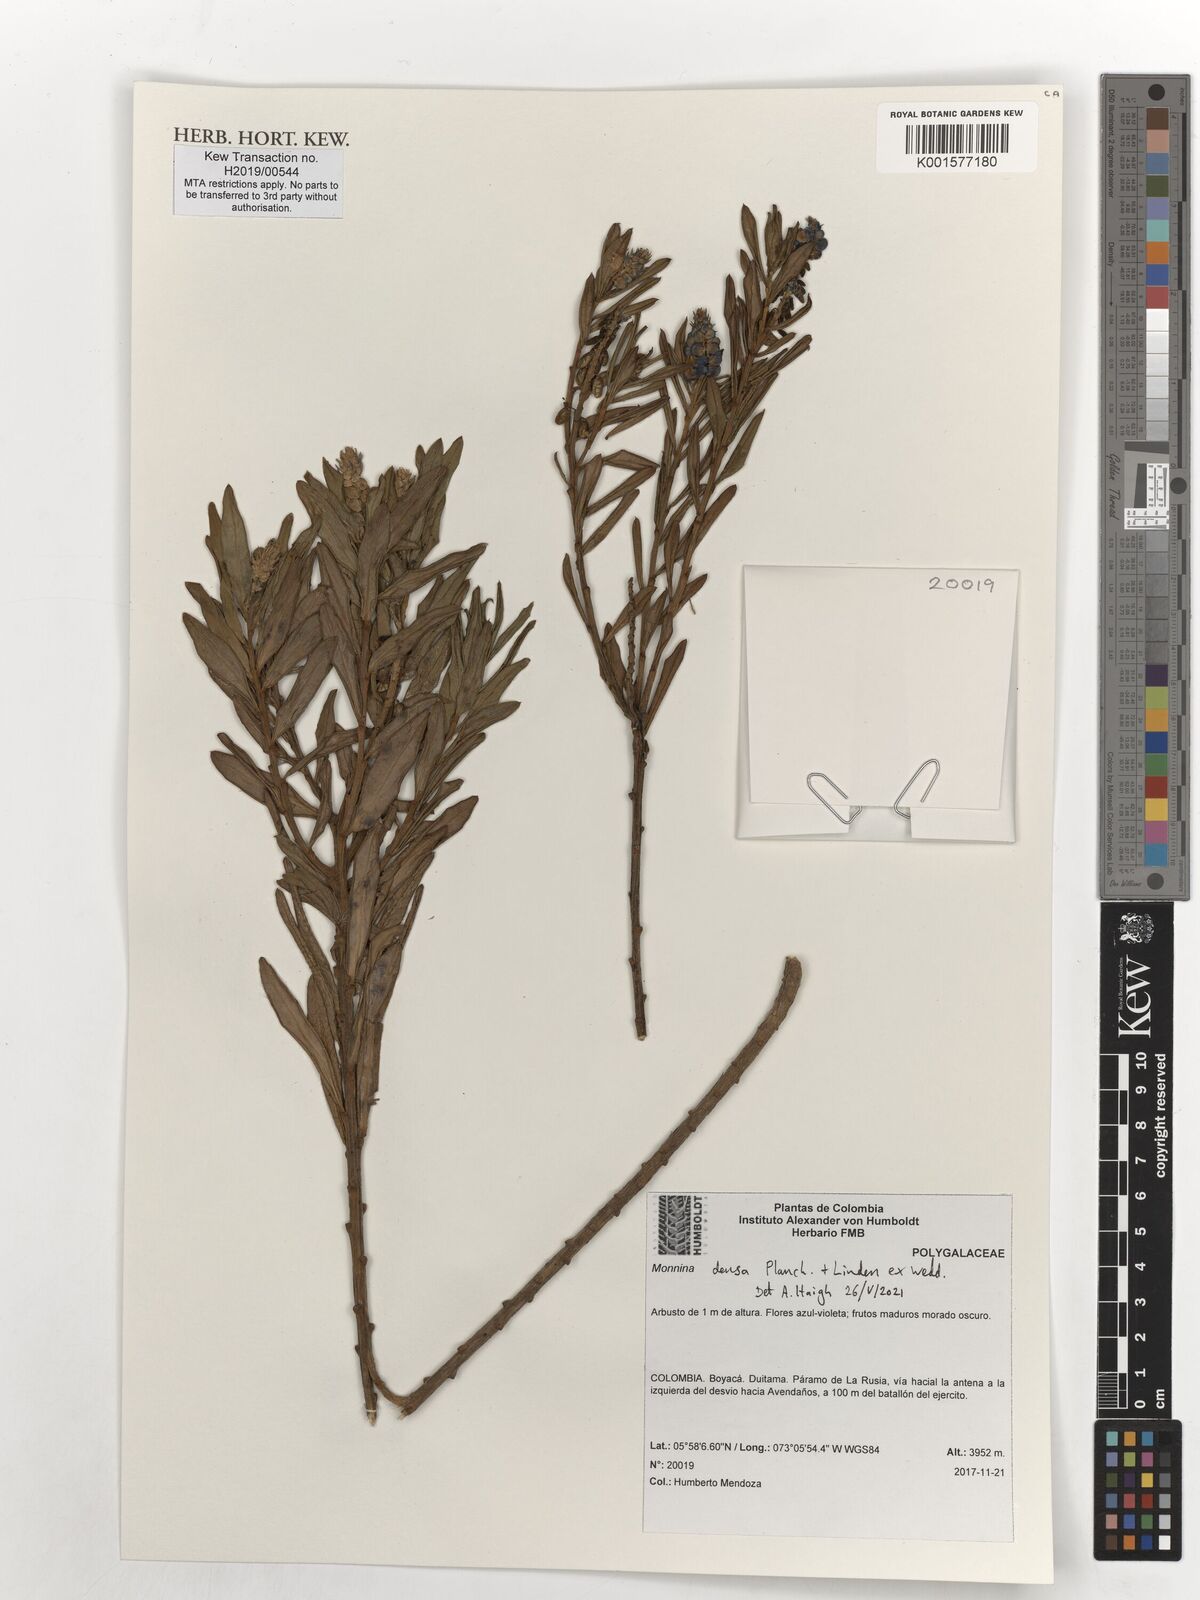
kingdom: Plantae
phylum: Tracheophyta
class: Magnoliopsida
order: Fabales
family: Polygalaceae
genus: Monnina
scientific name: Monnina densa
